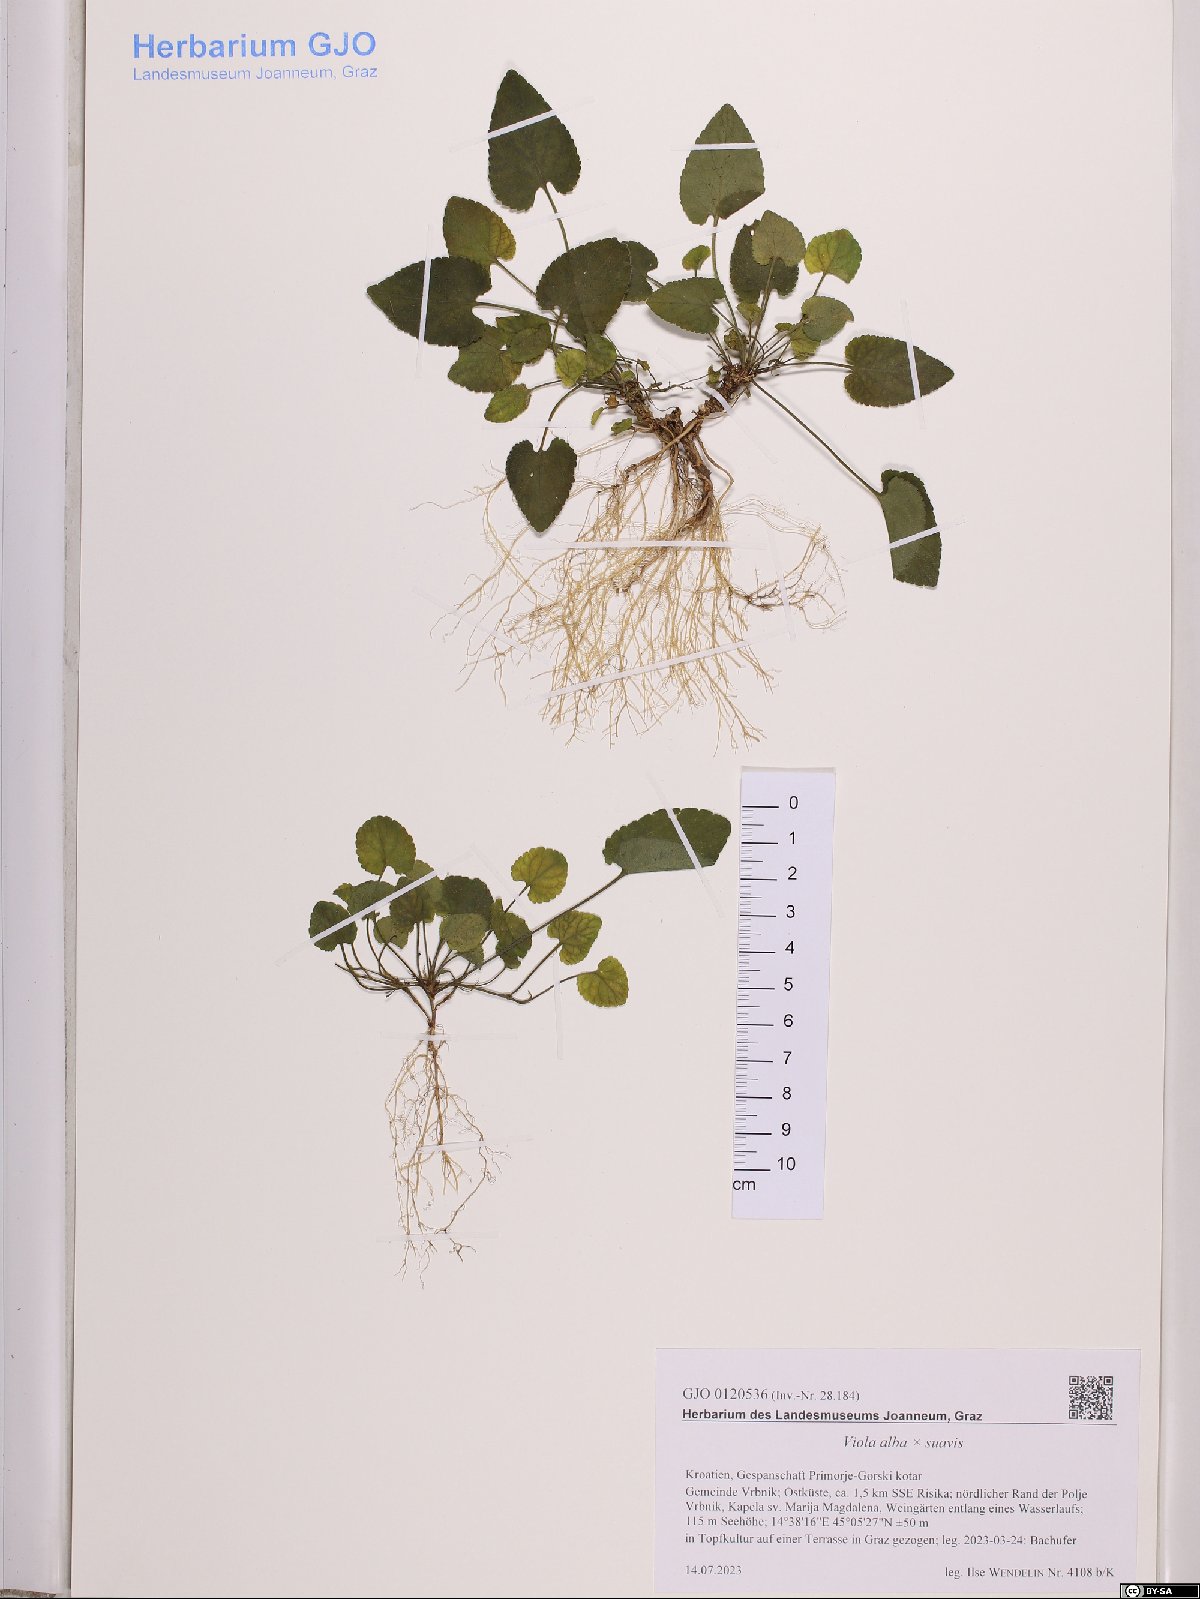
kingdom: Plantae
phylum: Tracheophyta
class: Magnoliopsida
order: Malpighiales
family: Violaceae
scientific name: Violaceae
